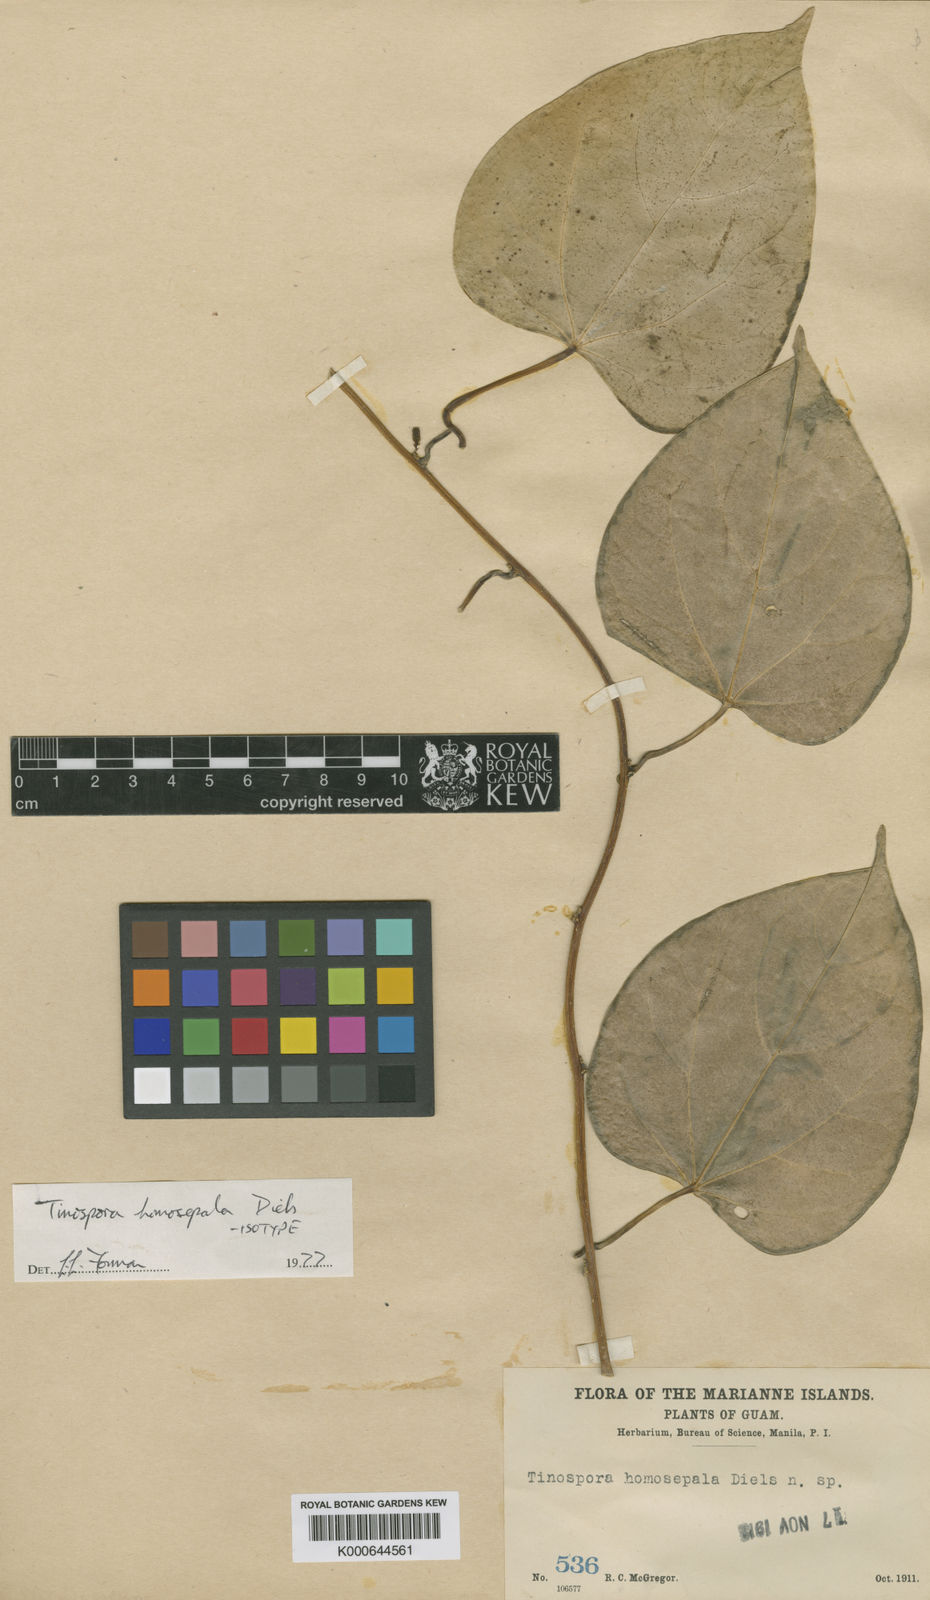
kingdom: Plantae
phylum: Tracheophyta
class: Magnoliopsida
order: Ranunculales
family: Menispermaceae
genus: Tinospora
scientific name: Tinospora homosepala
